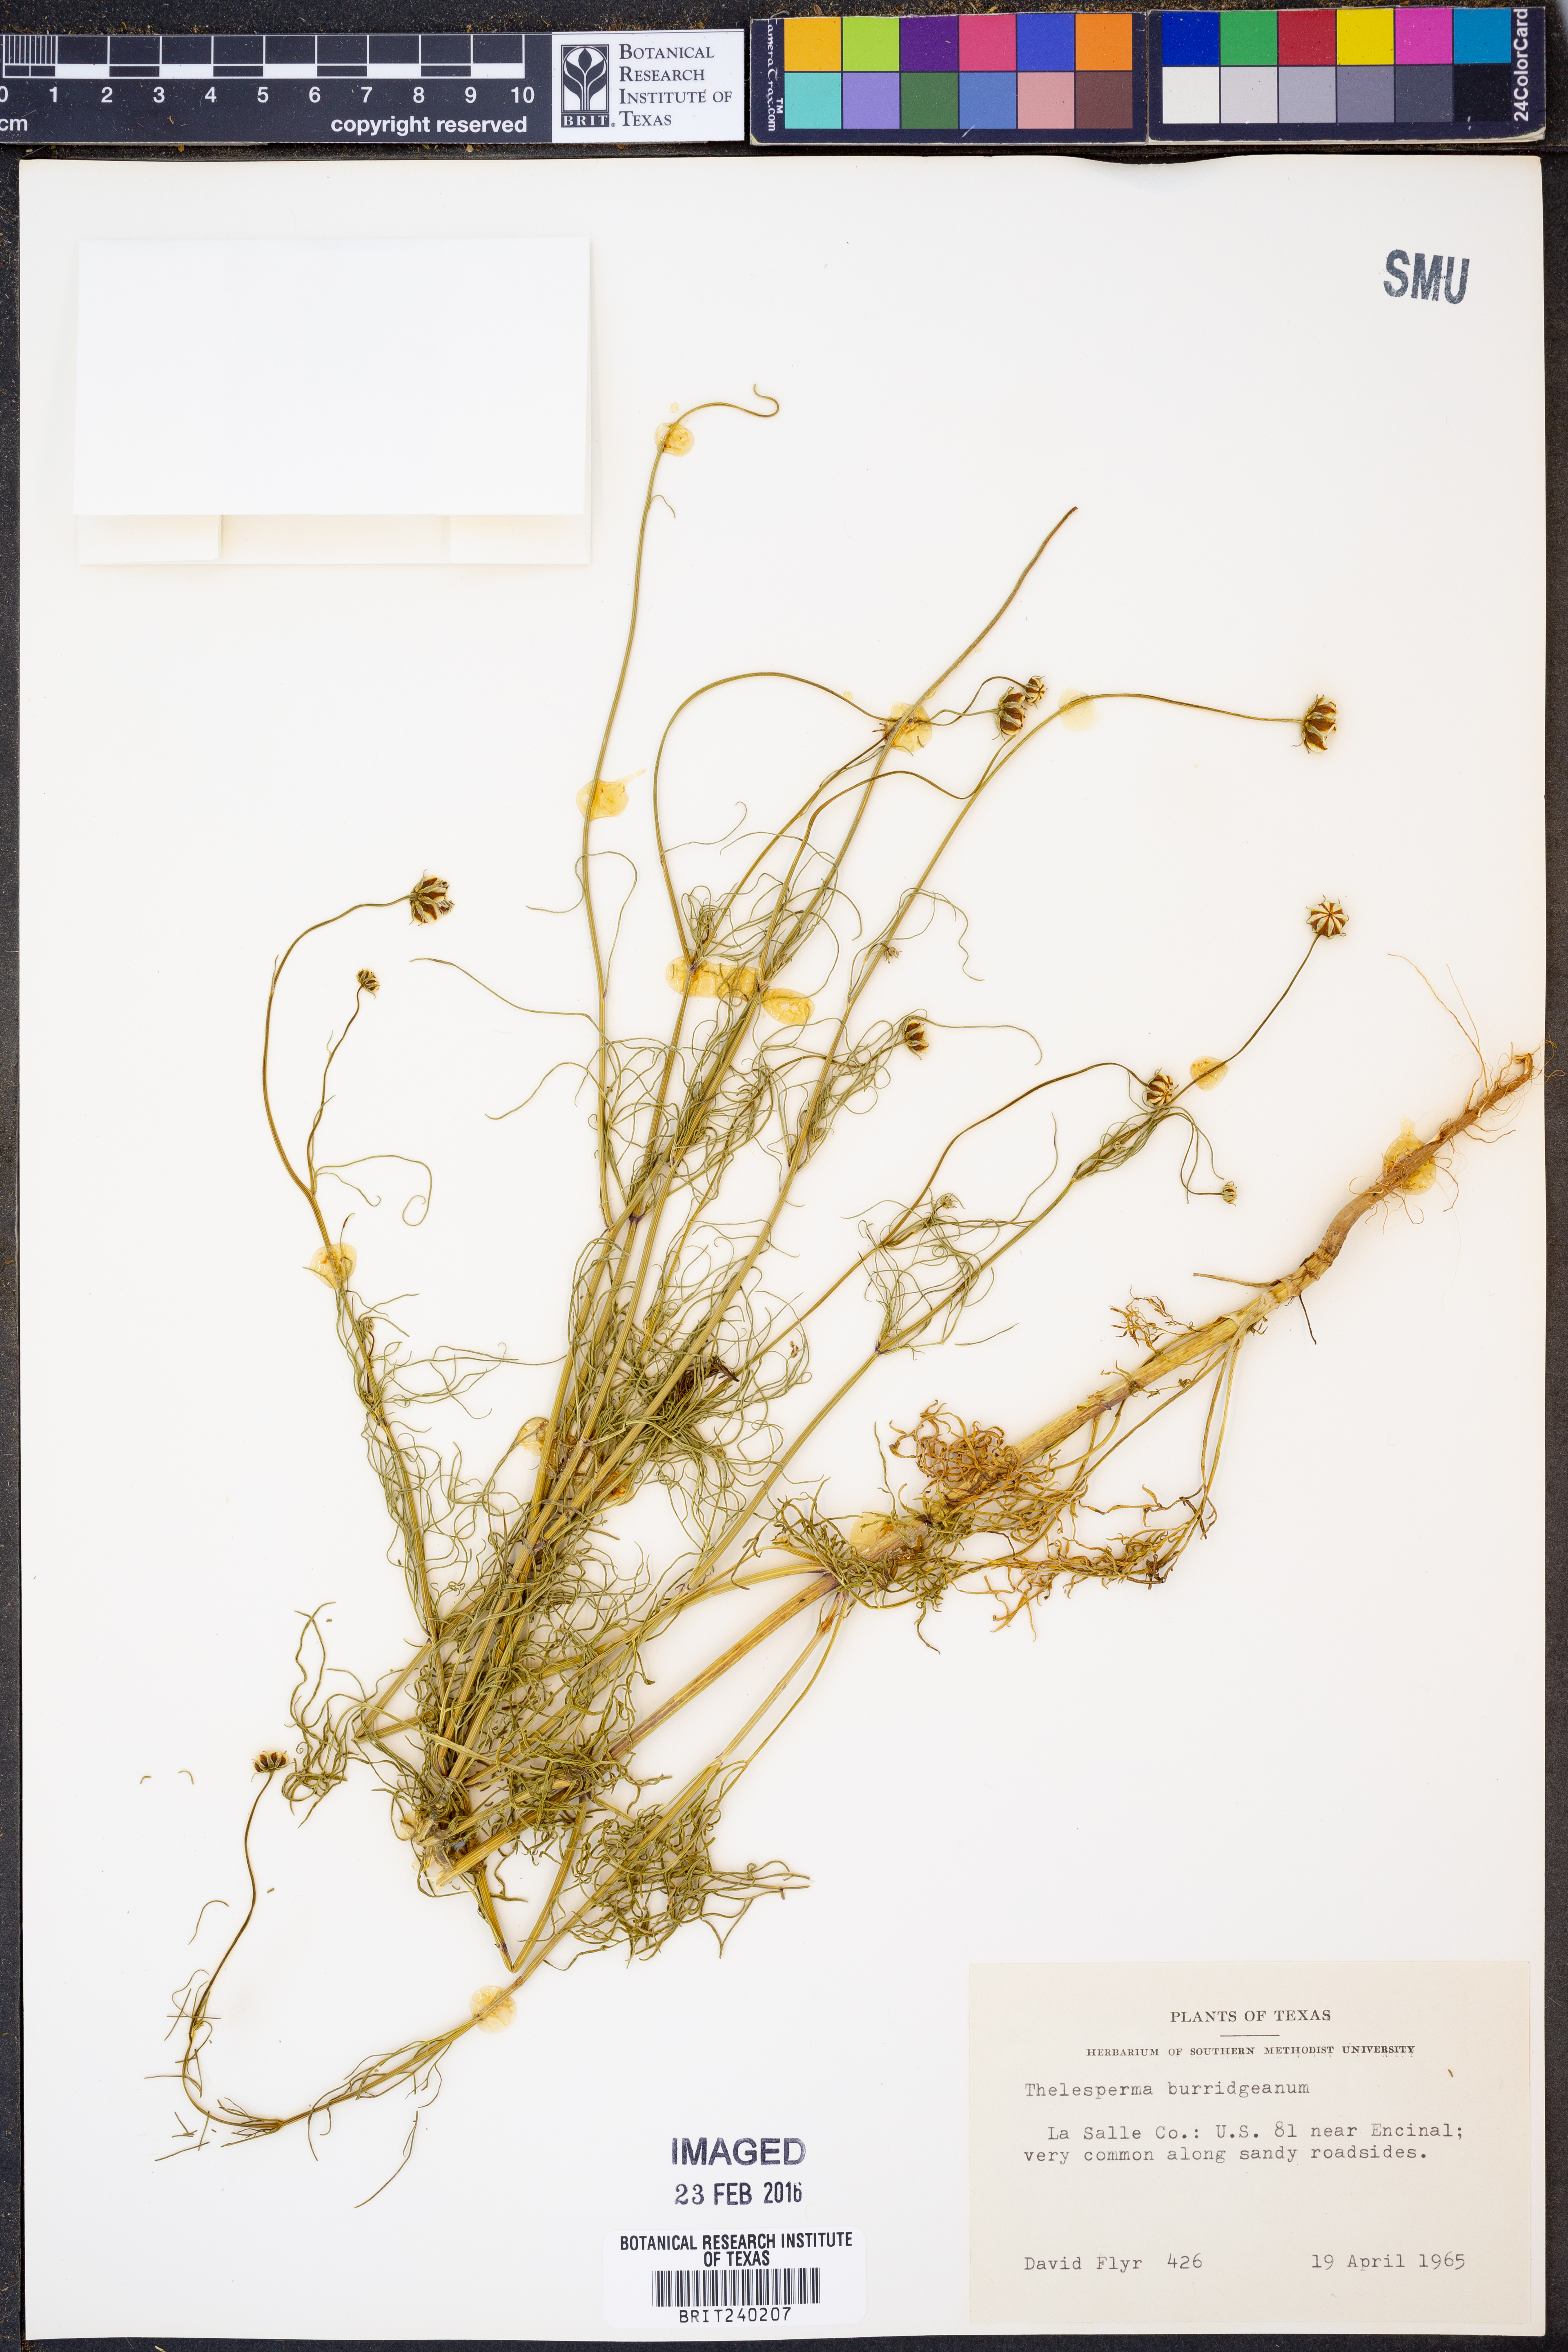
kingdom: Plantae
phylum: Tracheophyta
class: Magnoliopsida
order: Asterales
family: Asteraceae
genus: Thelesperma
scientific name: Thelesperma burridgeanum
